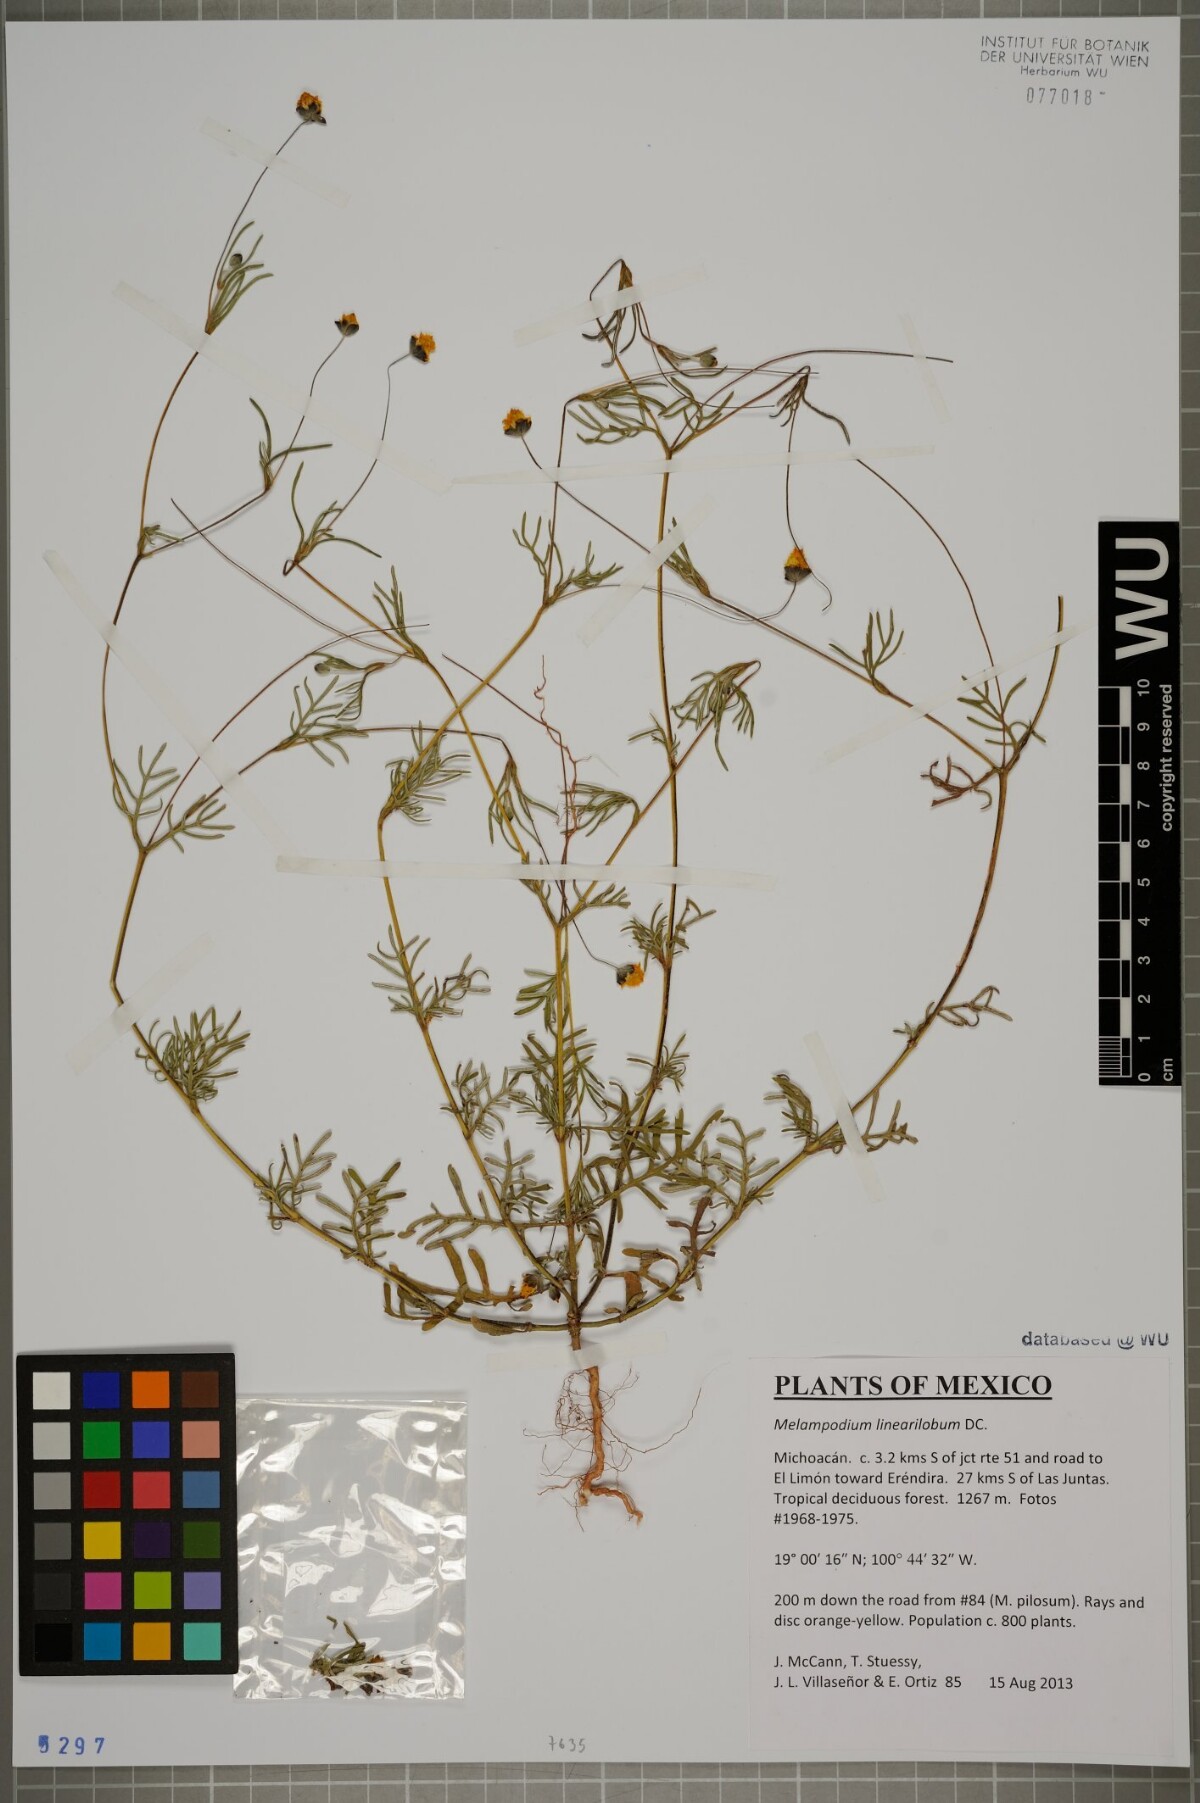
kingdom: Plantae
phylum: Tracheophyta
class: Magnoliopsida
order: Asterales
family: Asteraceae
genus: Melampodium
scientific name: Melampodium linearilobum
